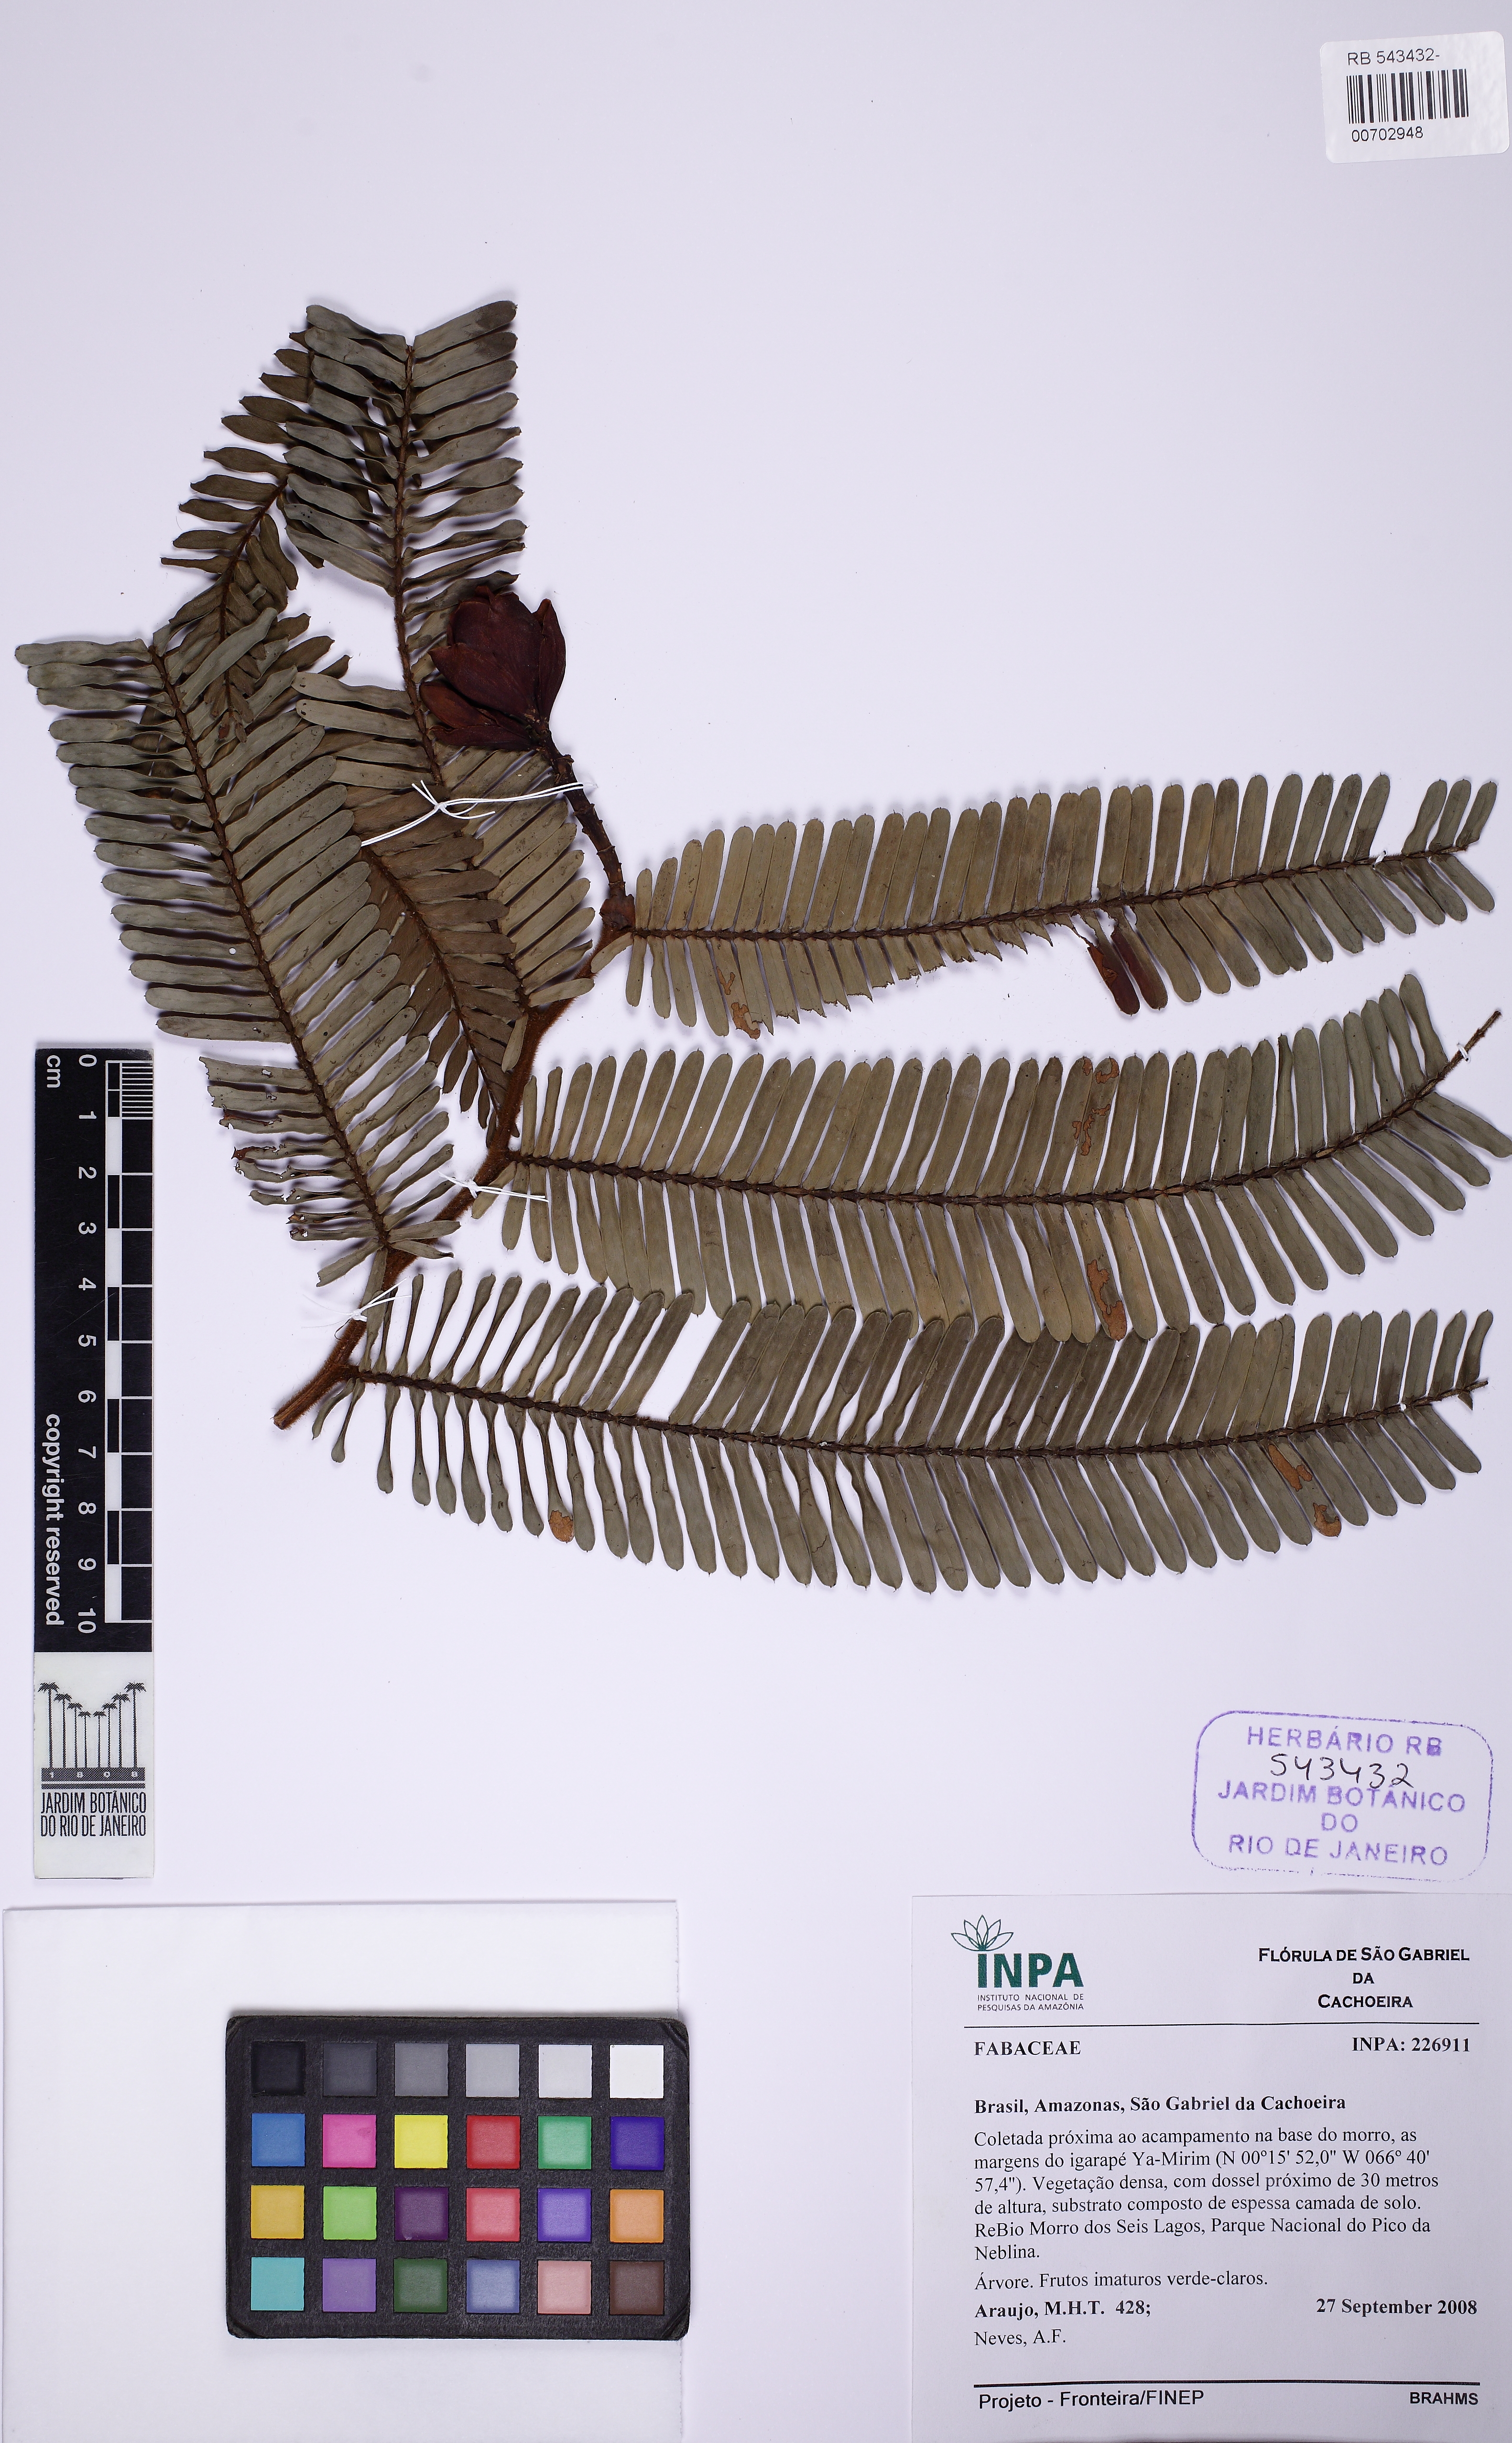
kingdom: Plantae
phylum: Tracheophyta
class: Magnoliopsida
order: Fabales
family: Fabaceae
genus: Paloue
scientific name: Paloue princeps
